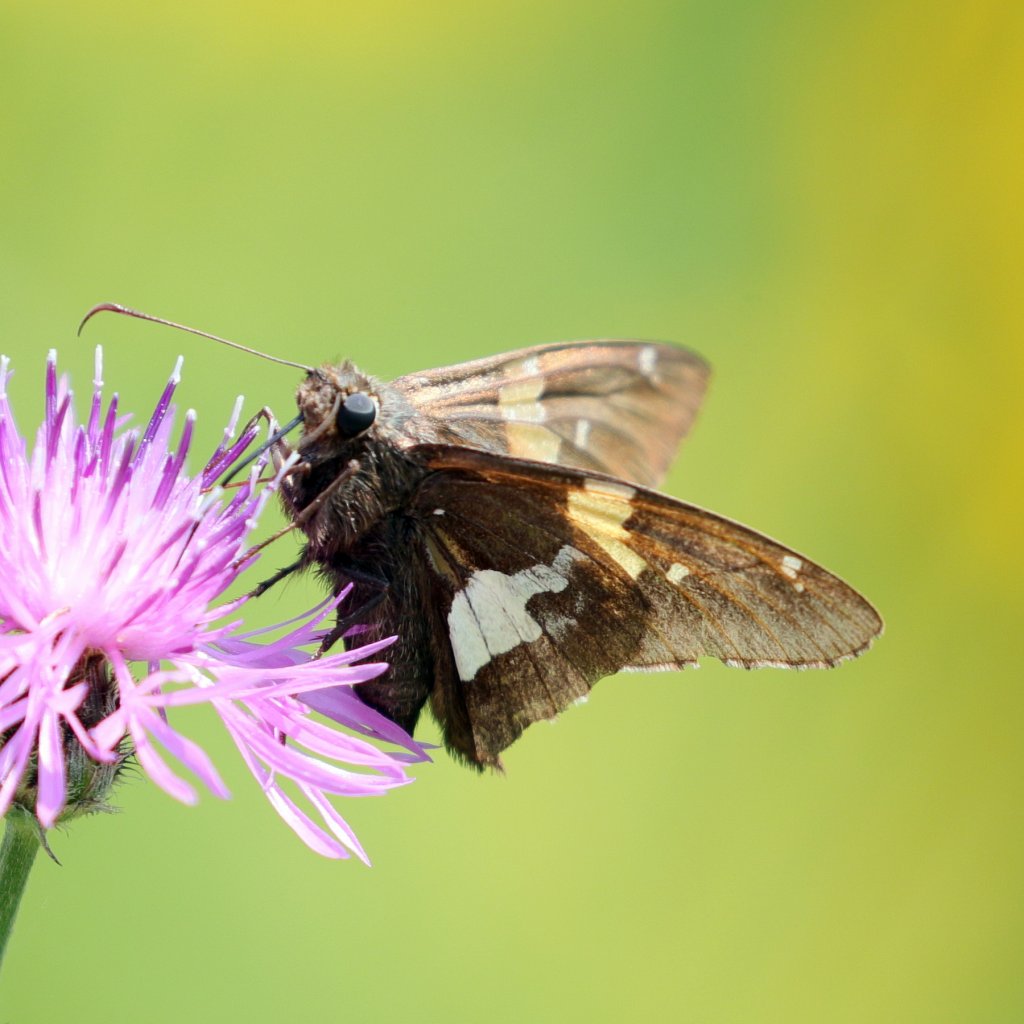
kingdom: Animalia
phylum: Arthropoda
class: Insecta
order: Lepidoptera
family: Hesperiidae
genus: Epargyreus
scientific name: Epargyreus clarus
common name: Silver-spotted Skipper
